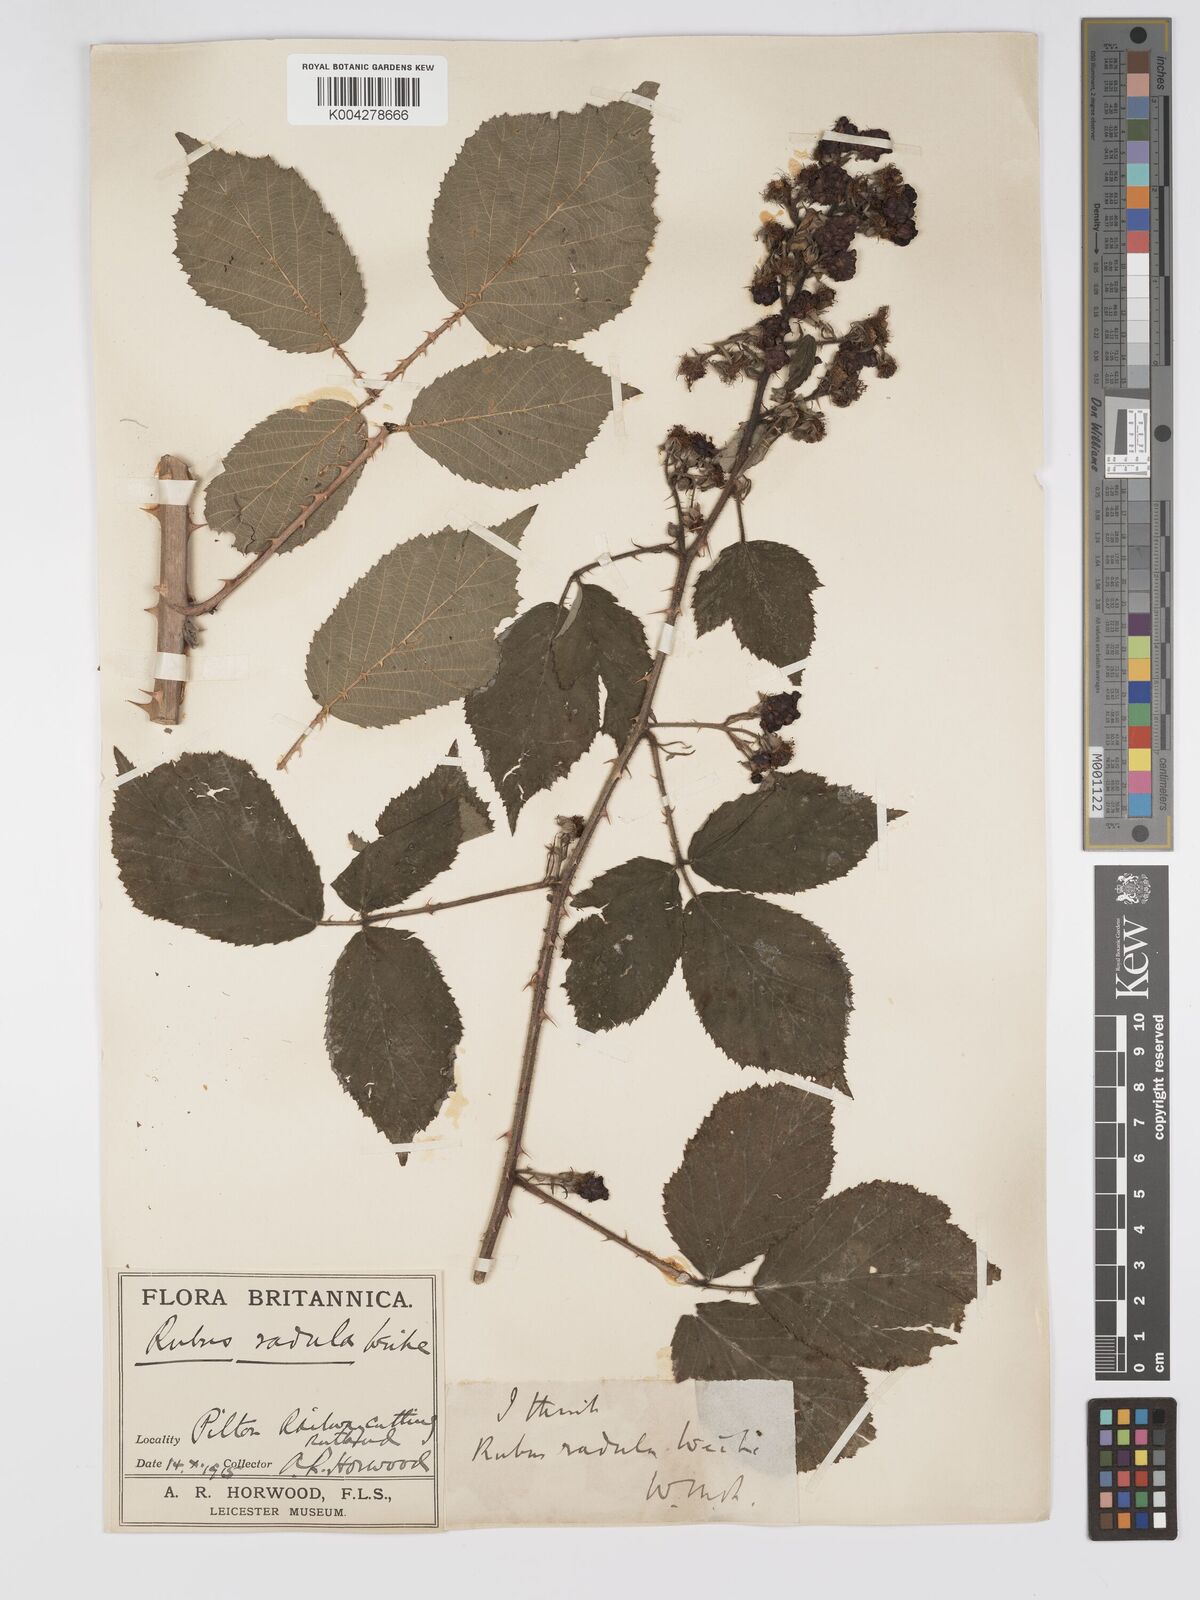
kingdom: Plantae
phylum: Tracheophyta
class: Magnoliopsida
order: Rosales
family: Rosaceae
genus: Rubus
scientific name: Rubus radula
